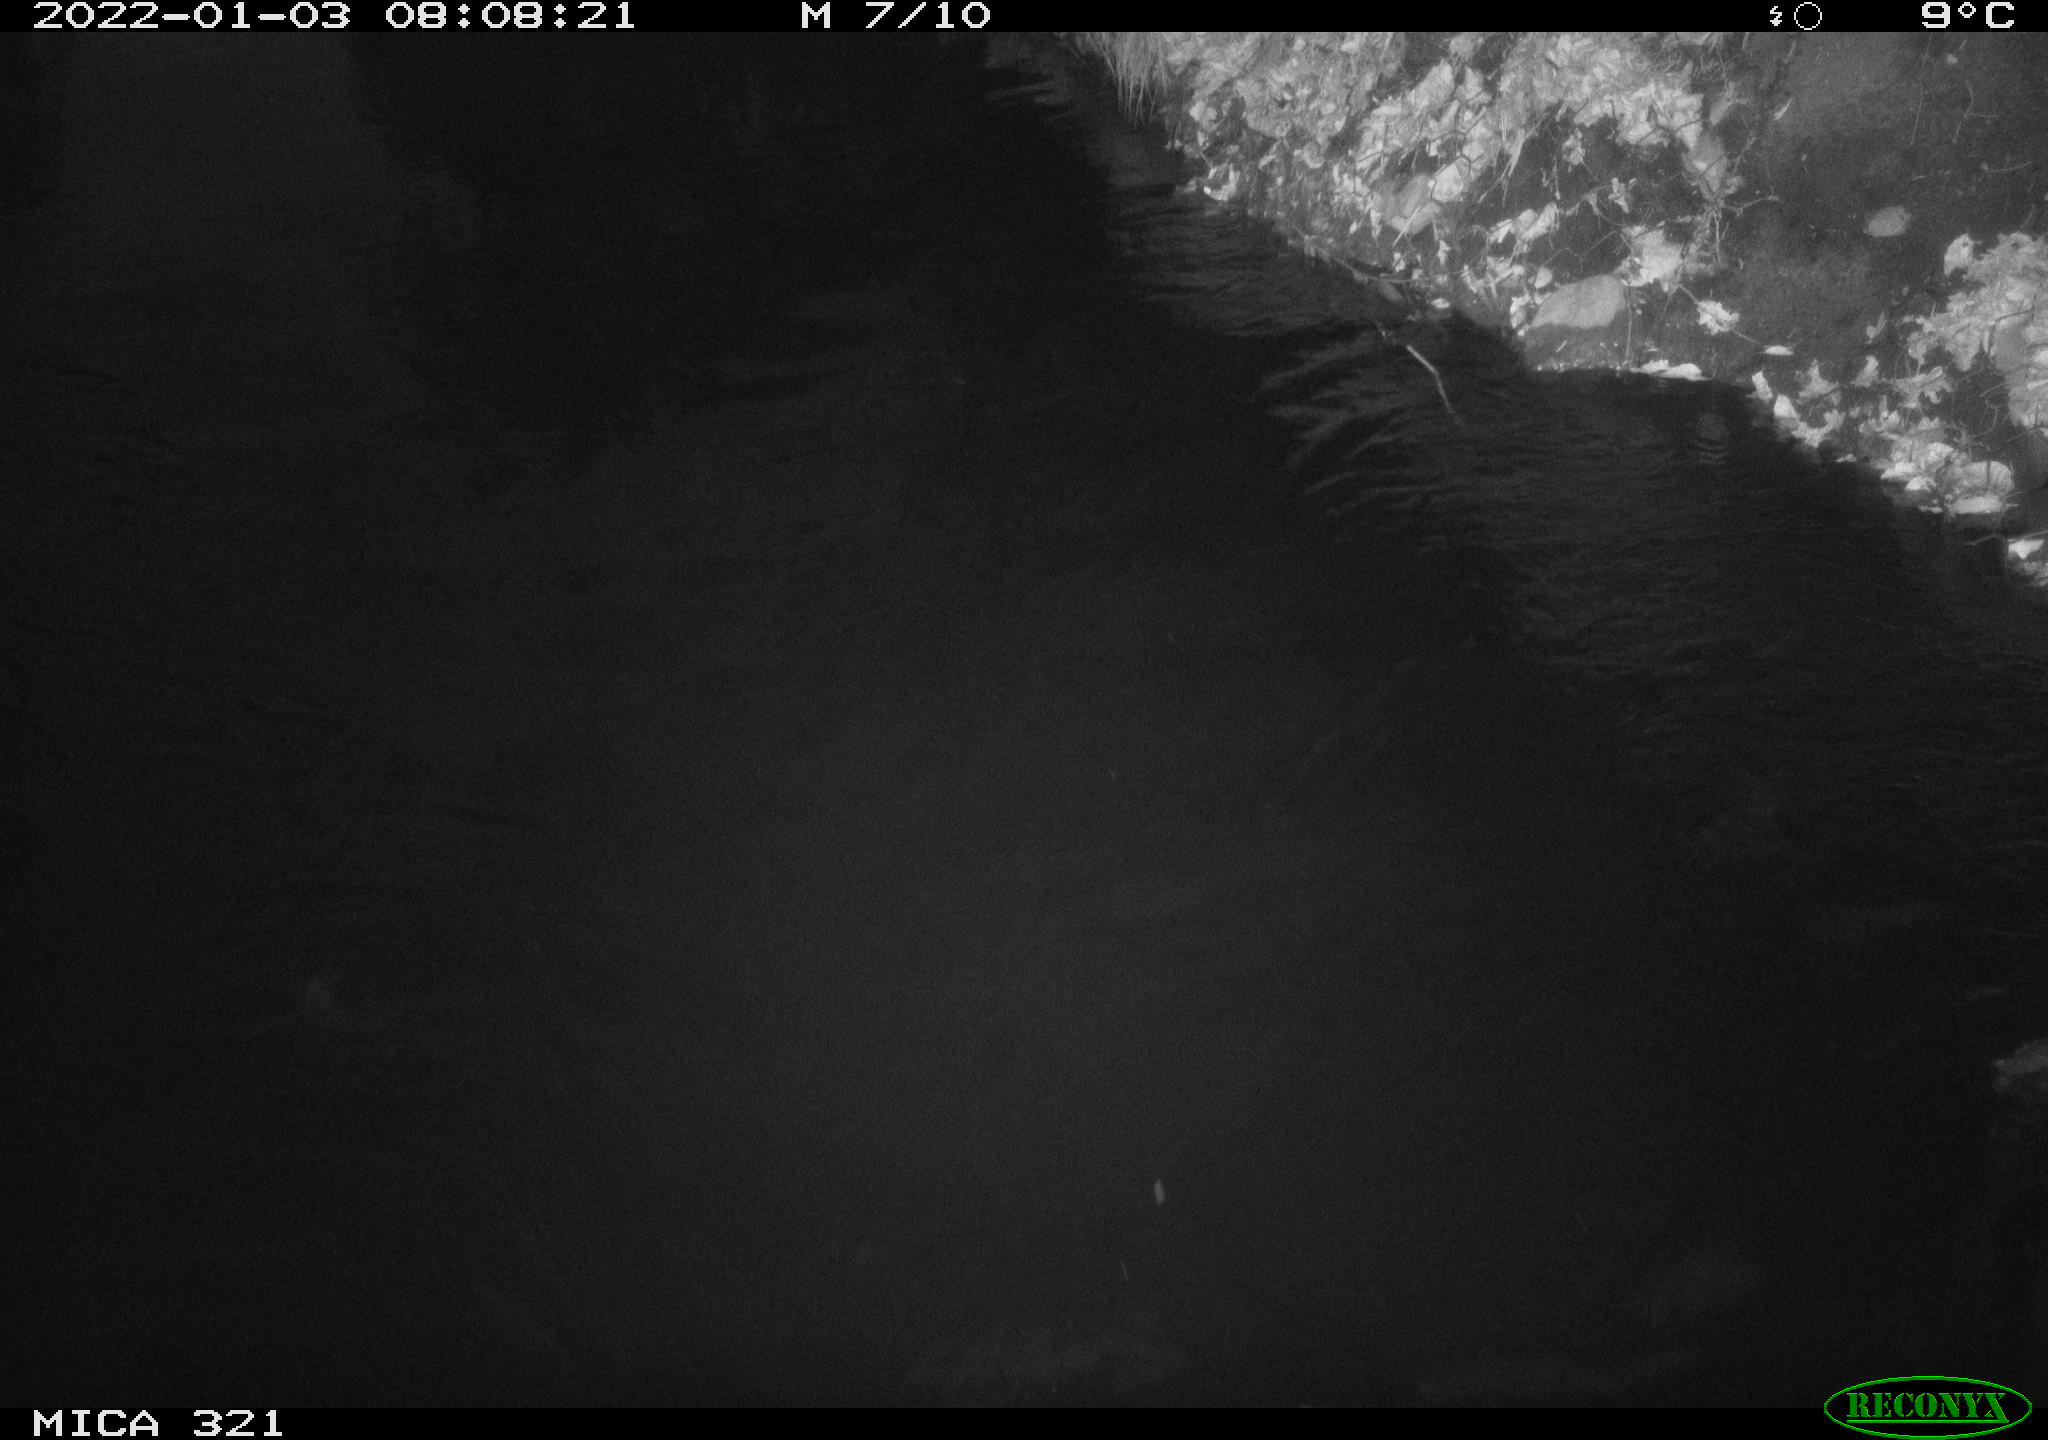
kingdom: Animalia
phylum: Chordata
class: Aves
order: Anseriformes
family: Anatidae
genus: Anas
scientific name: Anas platyrhynchos
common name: Mallard
